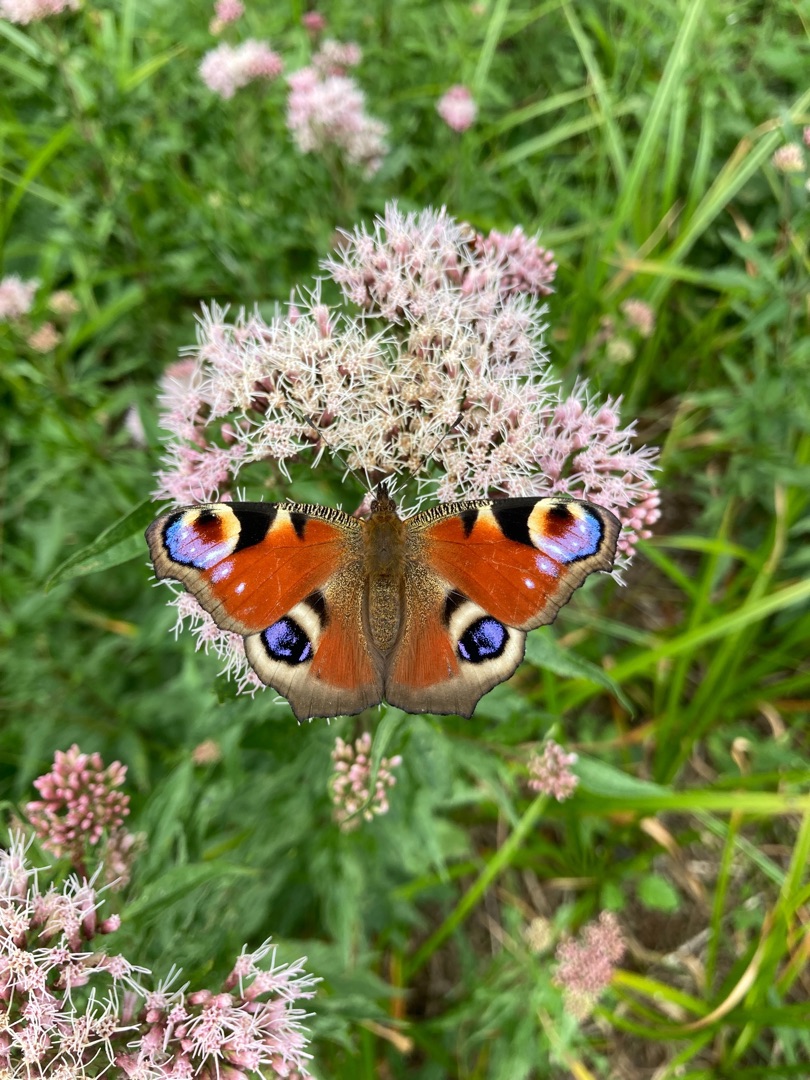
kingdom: Animalia
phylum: Arthropoda
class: Insecta
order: Lepidoptera
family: Nymphalidae
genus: Aglais
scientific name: Aglais io
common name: Dagpåfugleøje
